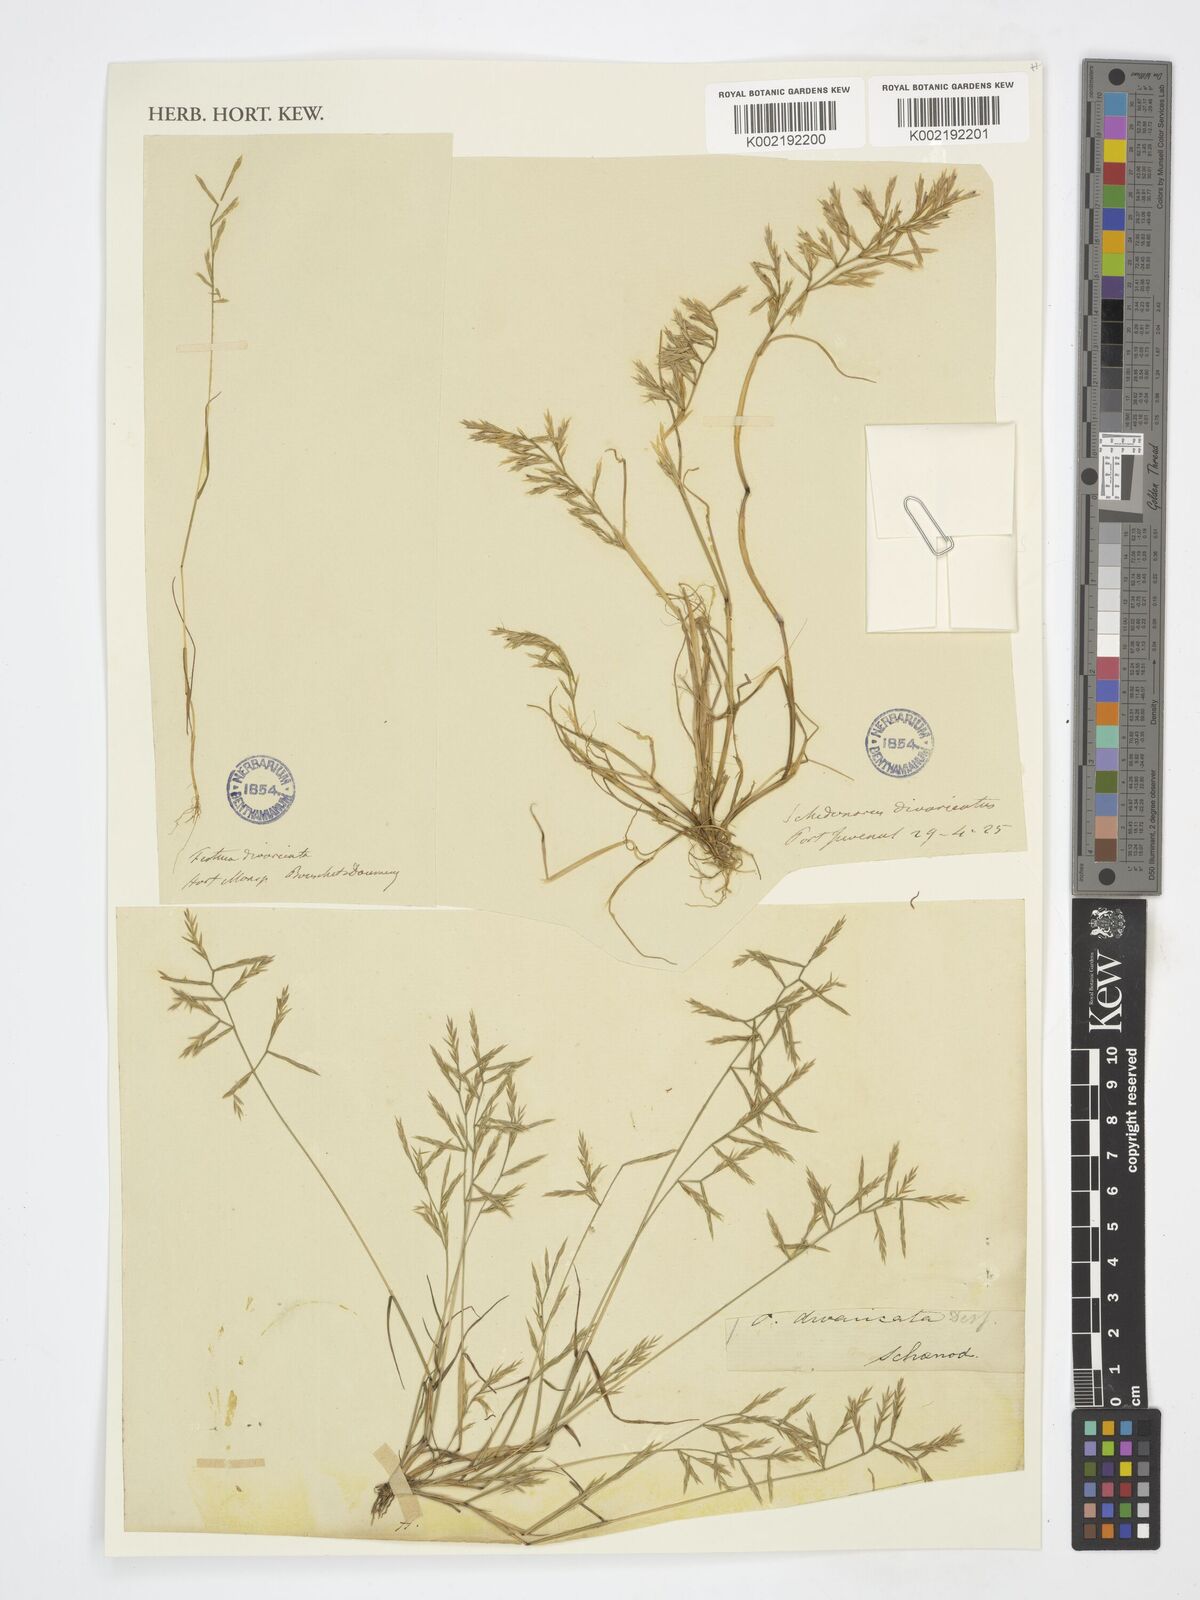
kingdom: Plantae
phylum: Tracheophyta
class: Liliopsida
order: Poales
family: Poaceae
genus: Cutandia
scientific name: Cutandia
